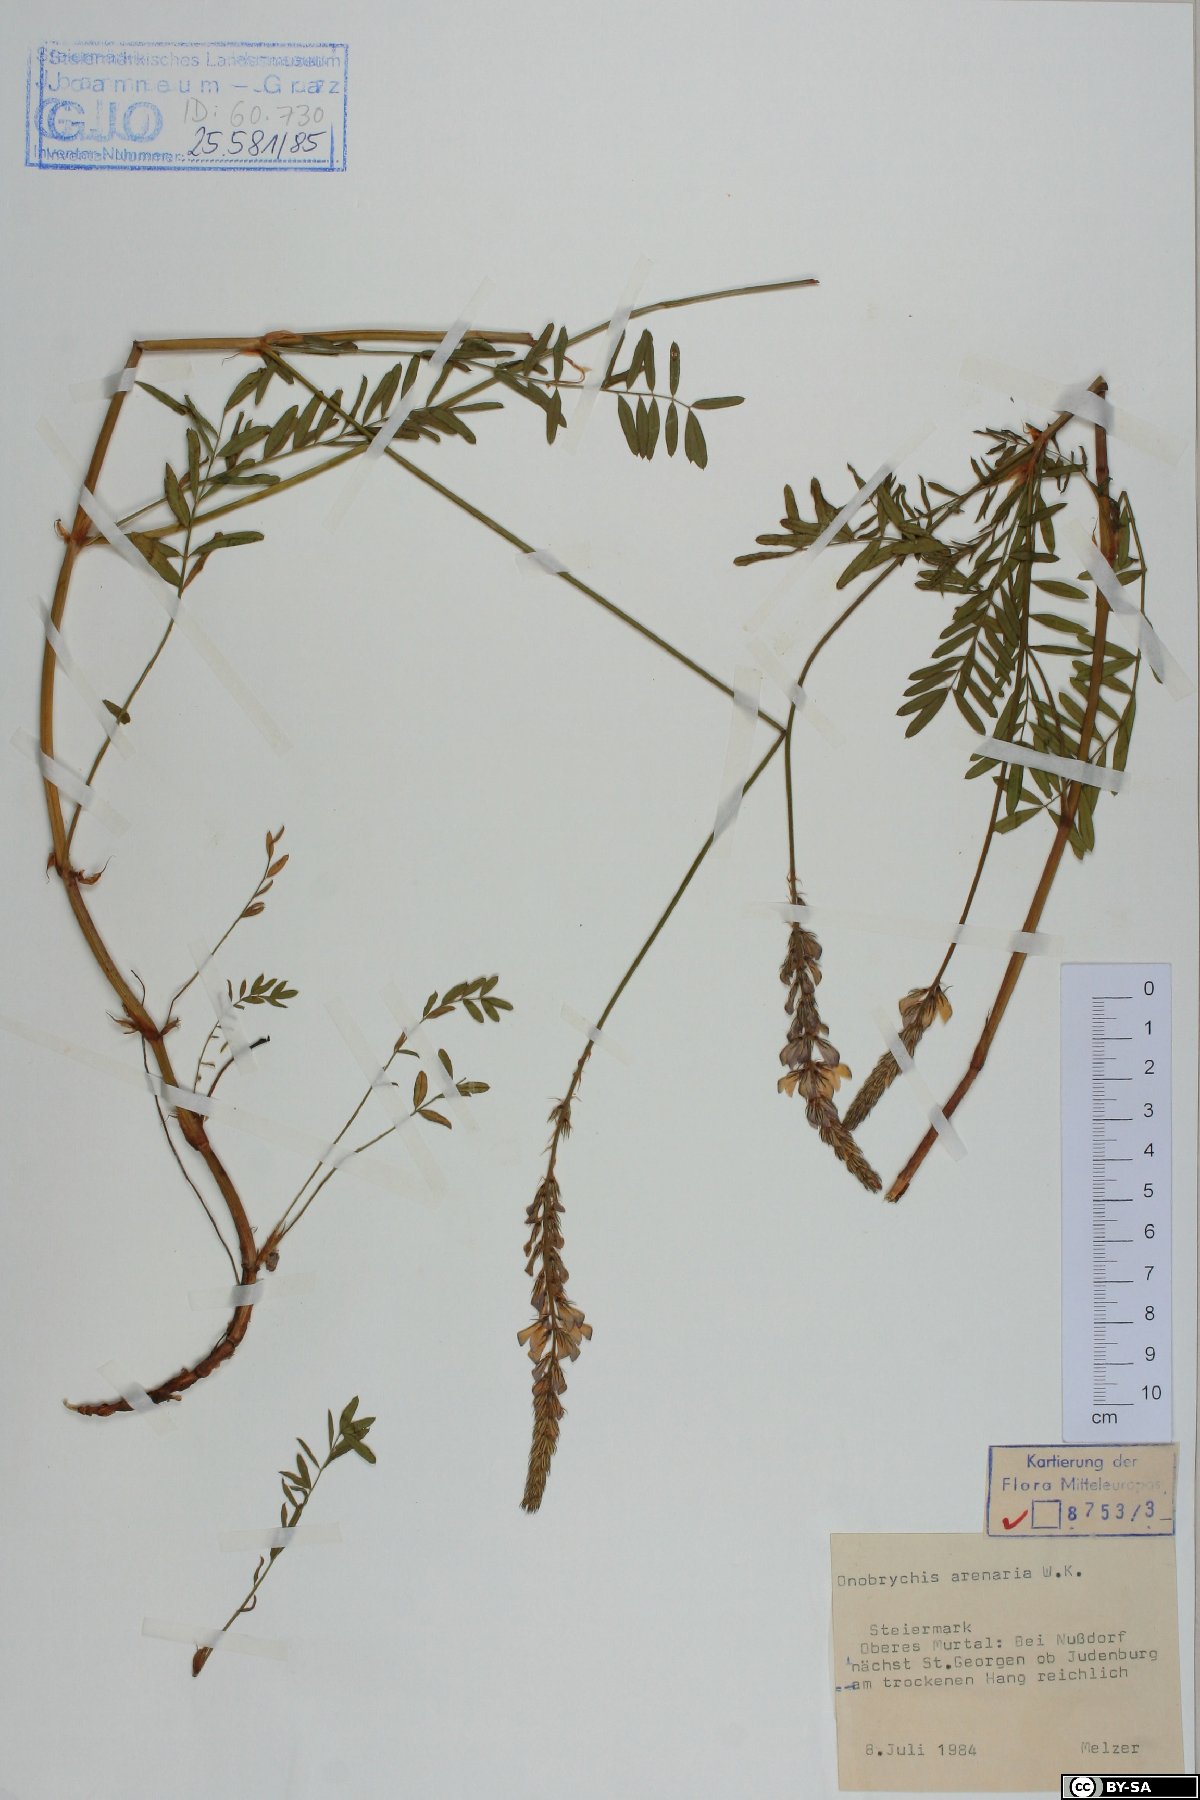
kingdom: Plantae
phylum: Tracheophyta
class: Magnoliopsida
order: Fabales
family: Fabaceae
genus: Onobrychis
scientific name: Onobrychis arenaria
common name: Sand esparcet
